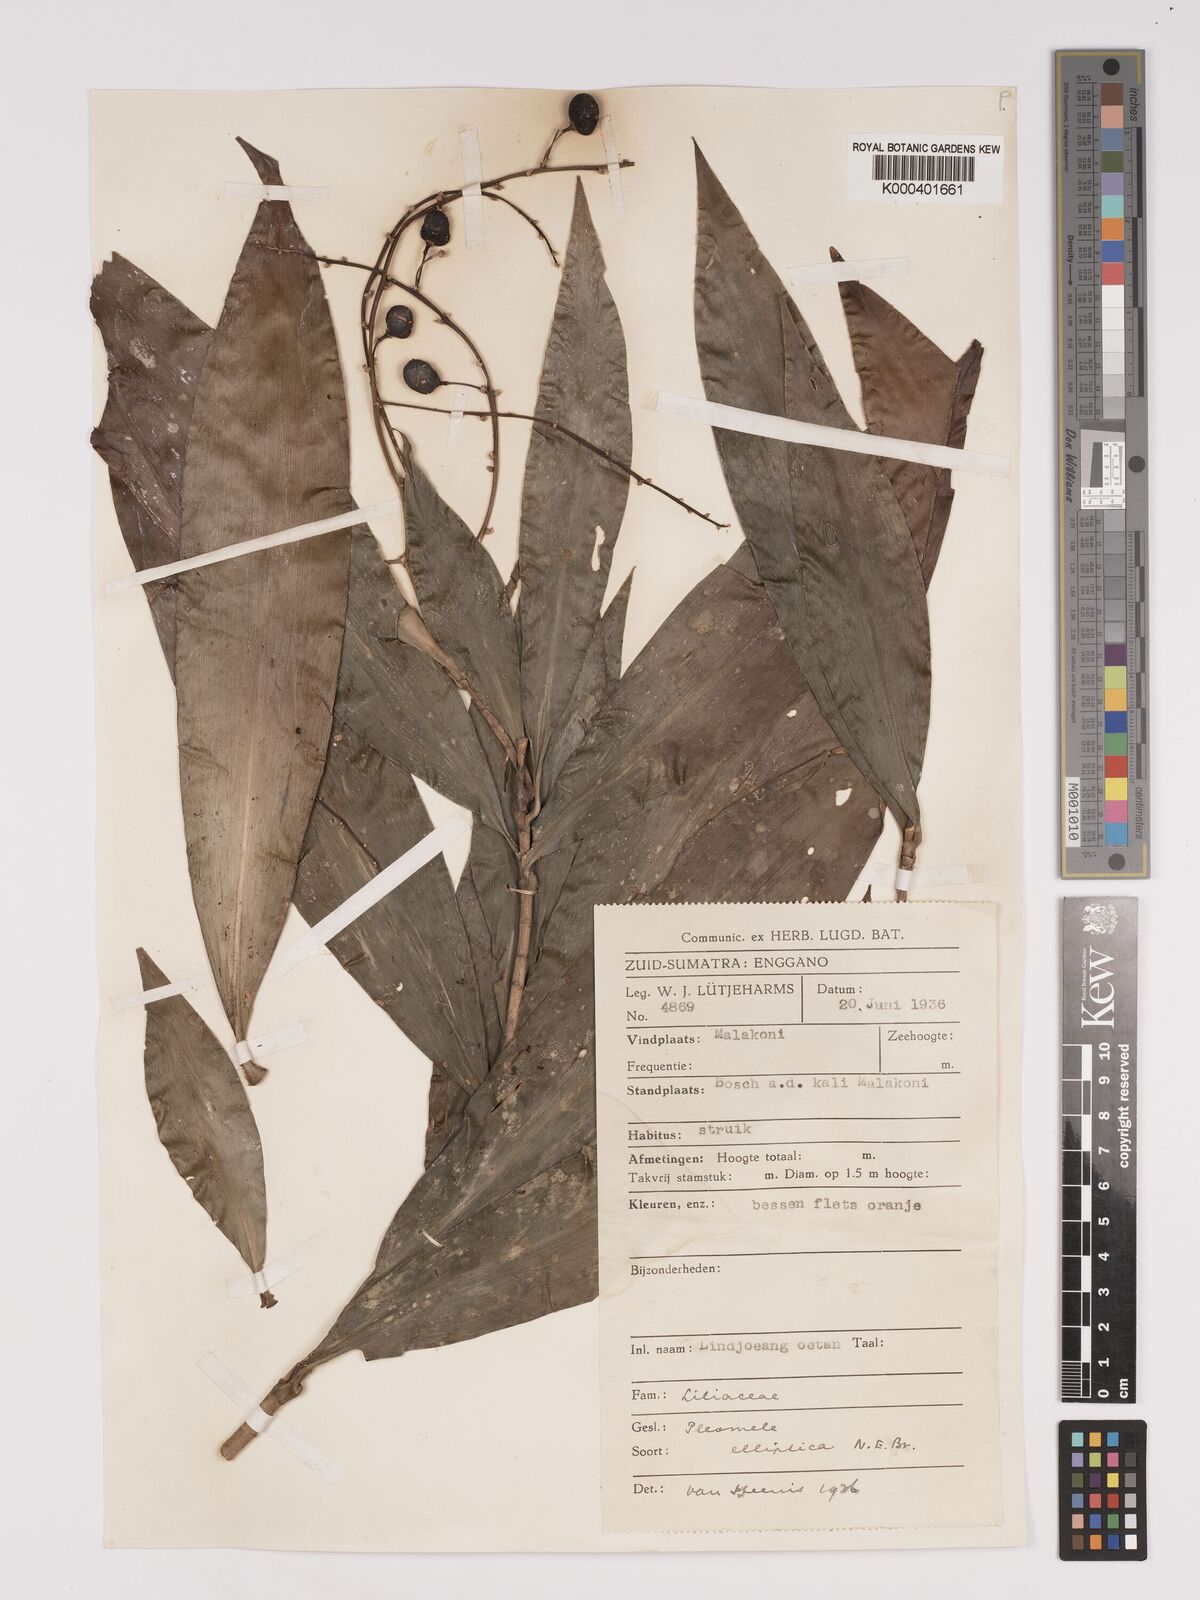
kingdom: Plantae
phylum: Tracheophyta
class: Liliopsida
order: Asparagales
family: Asparagaceae
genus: Dracaena
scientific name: Dracaena elliptica
